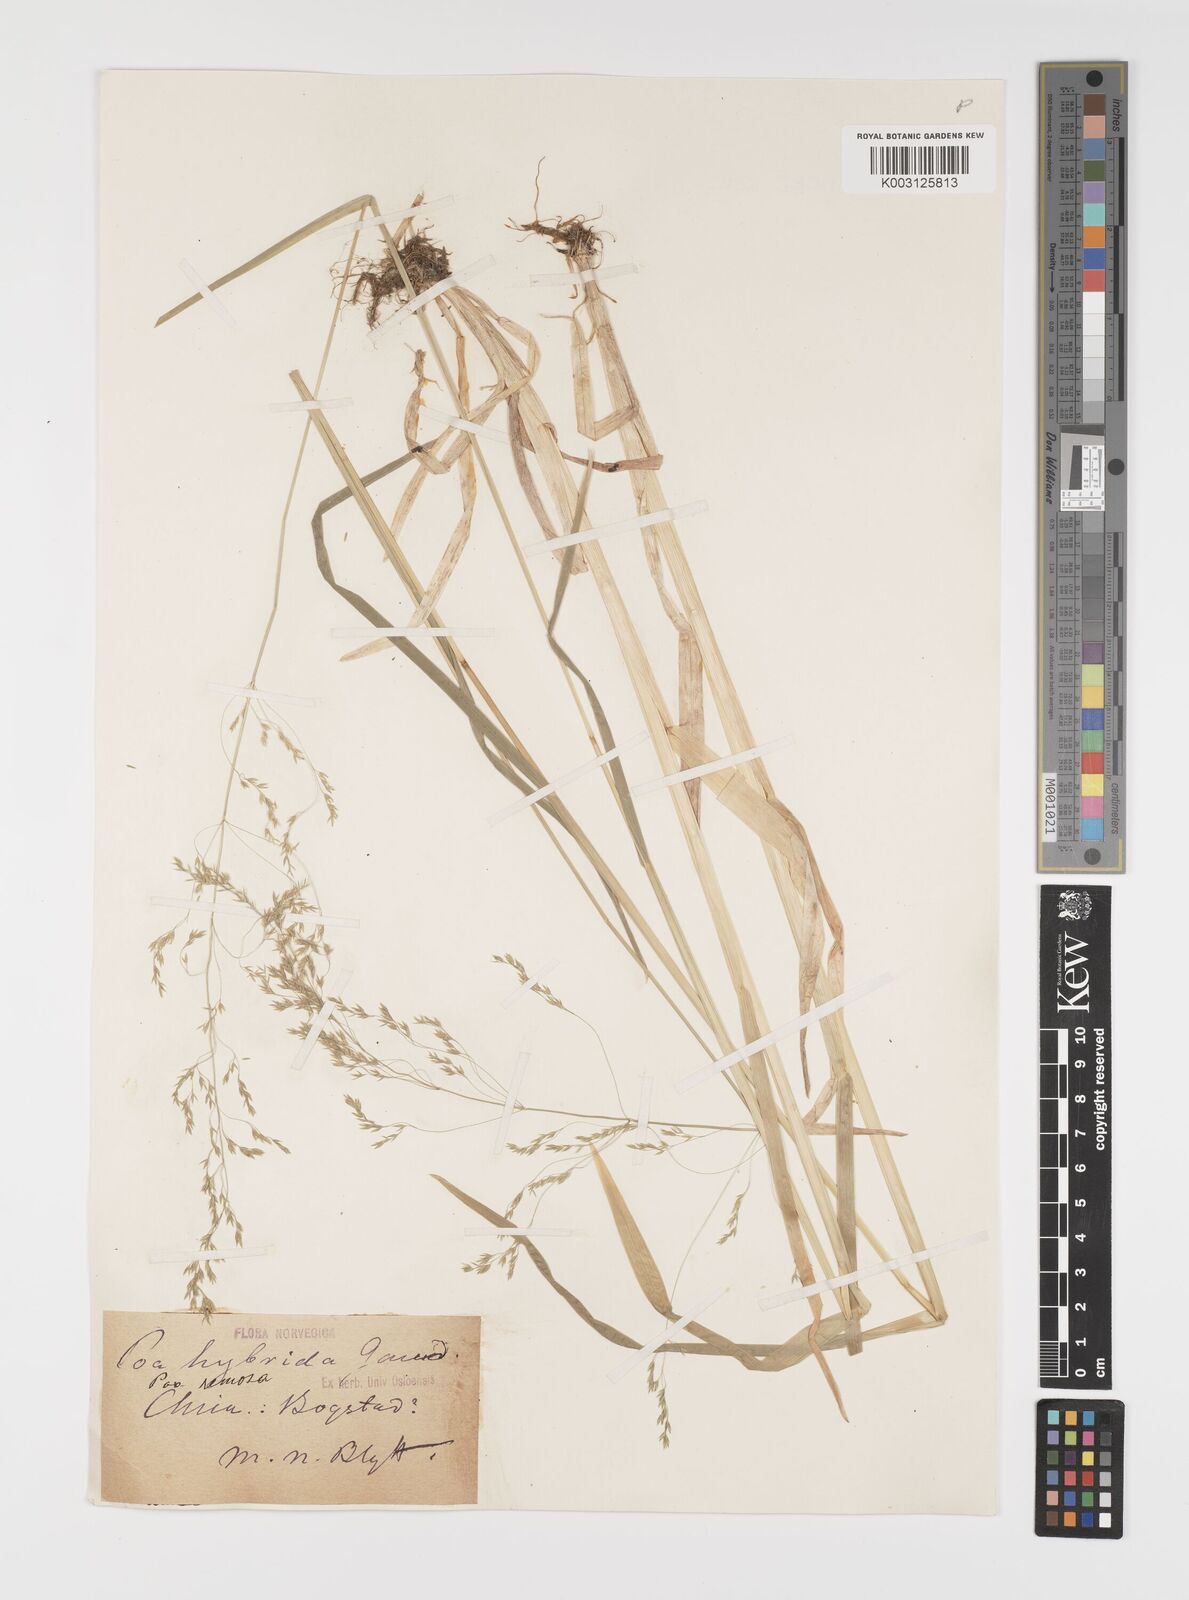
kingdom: Plantae
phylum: Tracheophyta
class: Liliopsida
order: Poales
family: Poaceae
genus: Poa
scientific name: Poa remota
